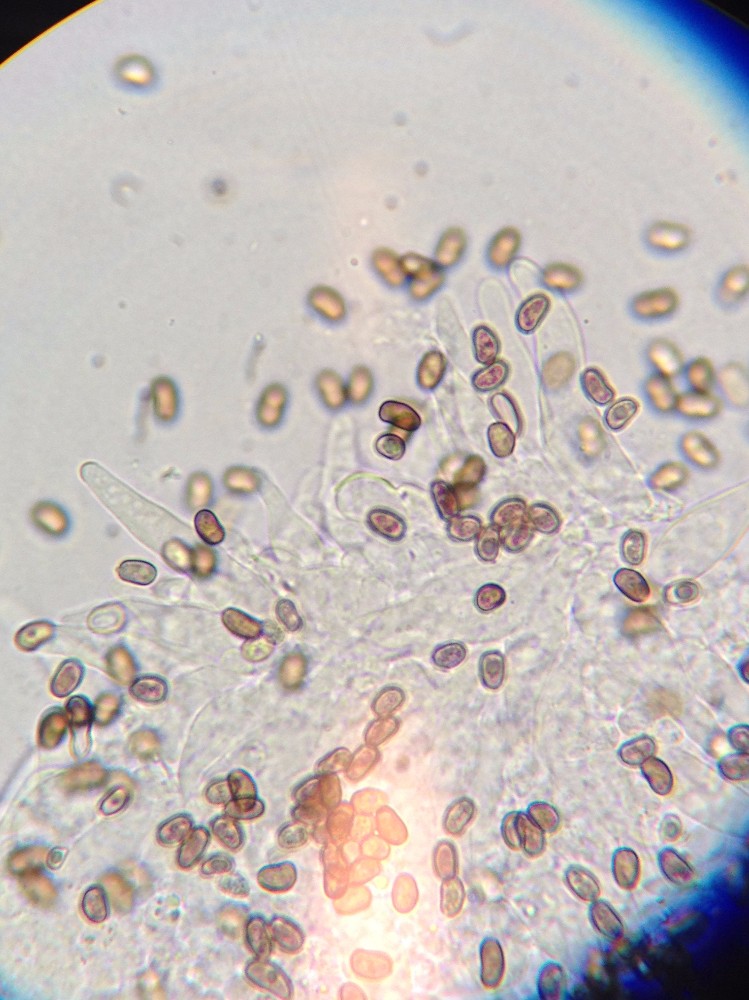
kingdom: Fungi
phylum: Basidiomycota
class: Agaricomycetes
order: Agaricales
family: Psathyrellaceae
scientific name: Psathyrellaceae
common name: mørkhatfamilien
